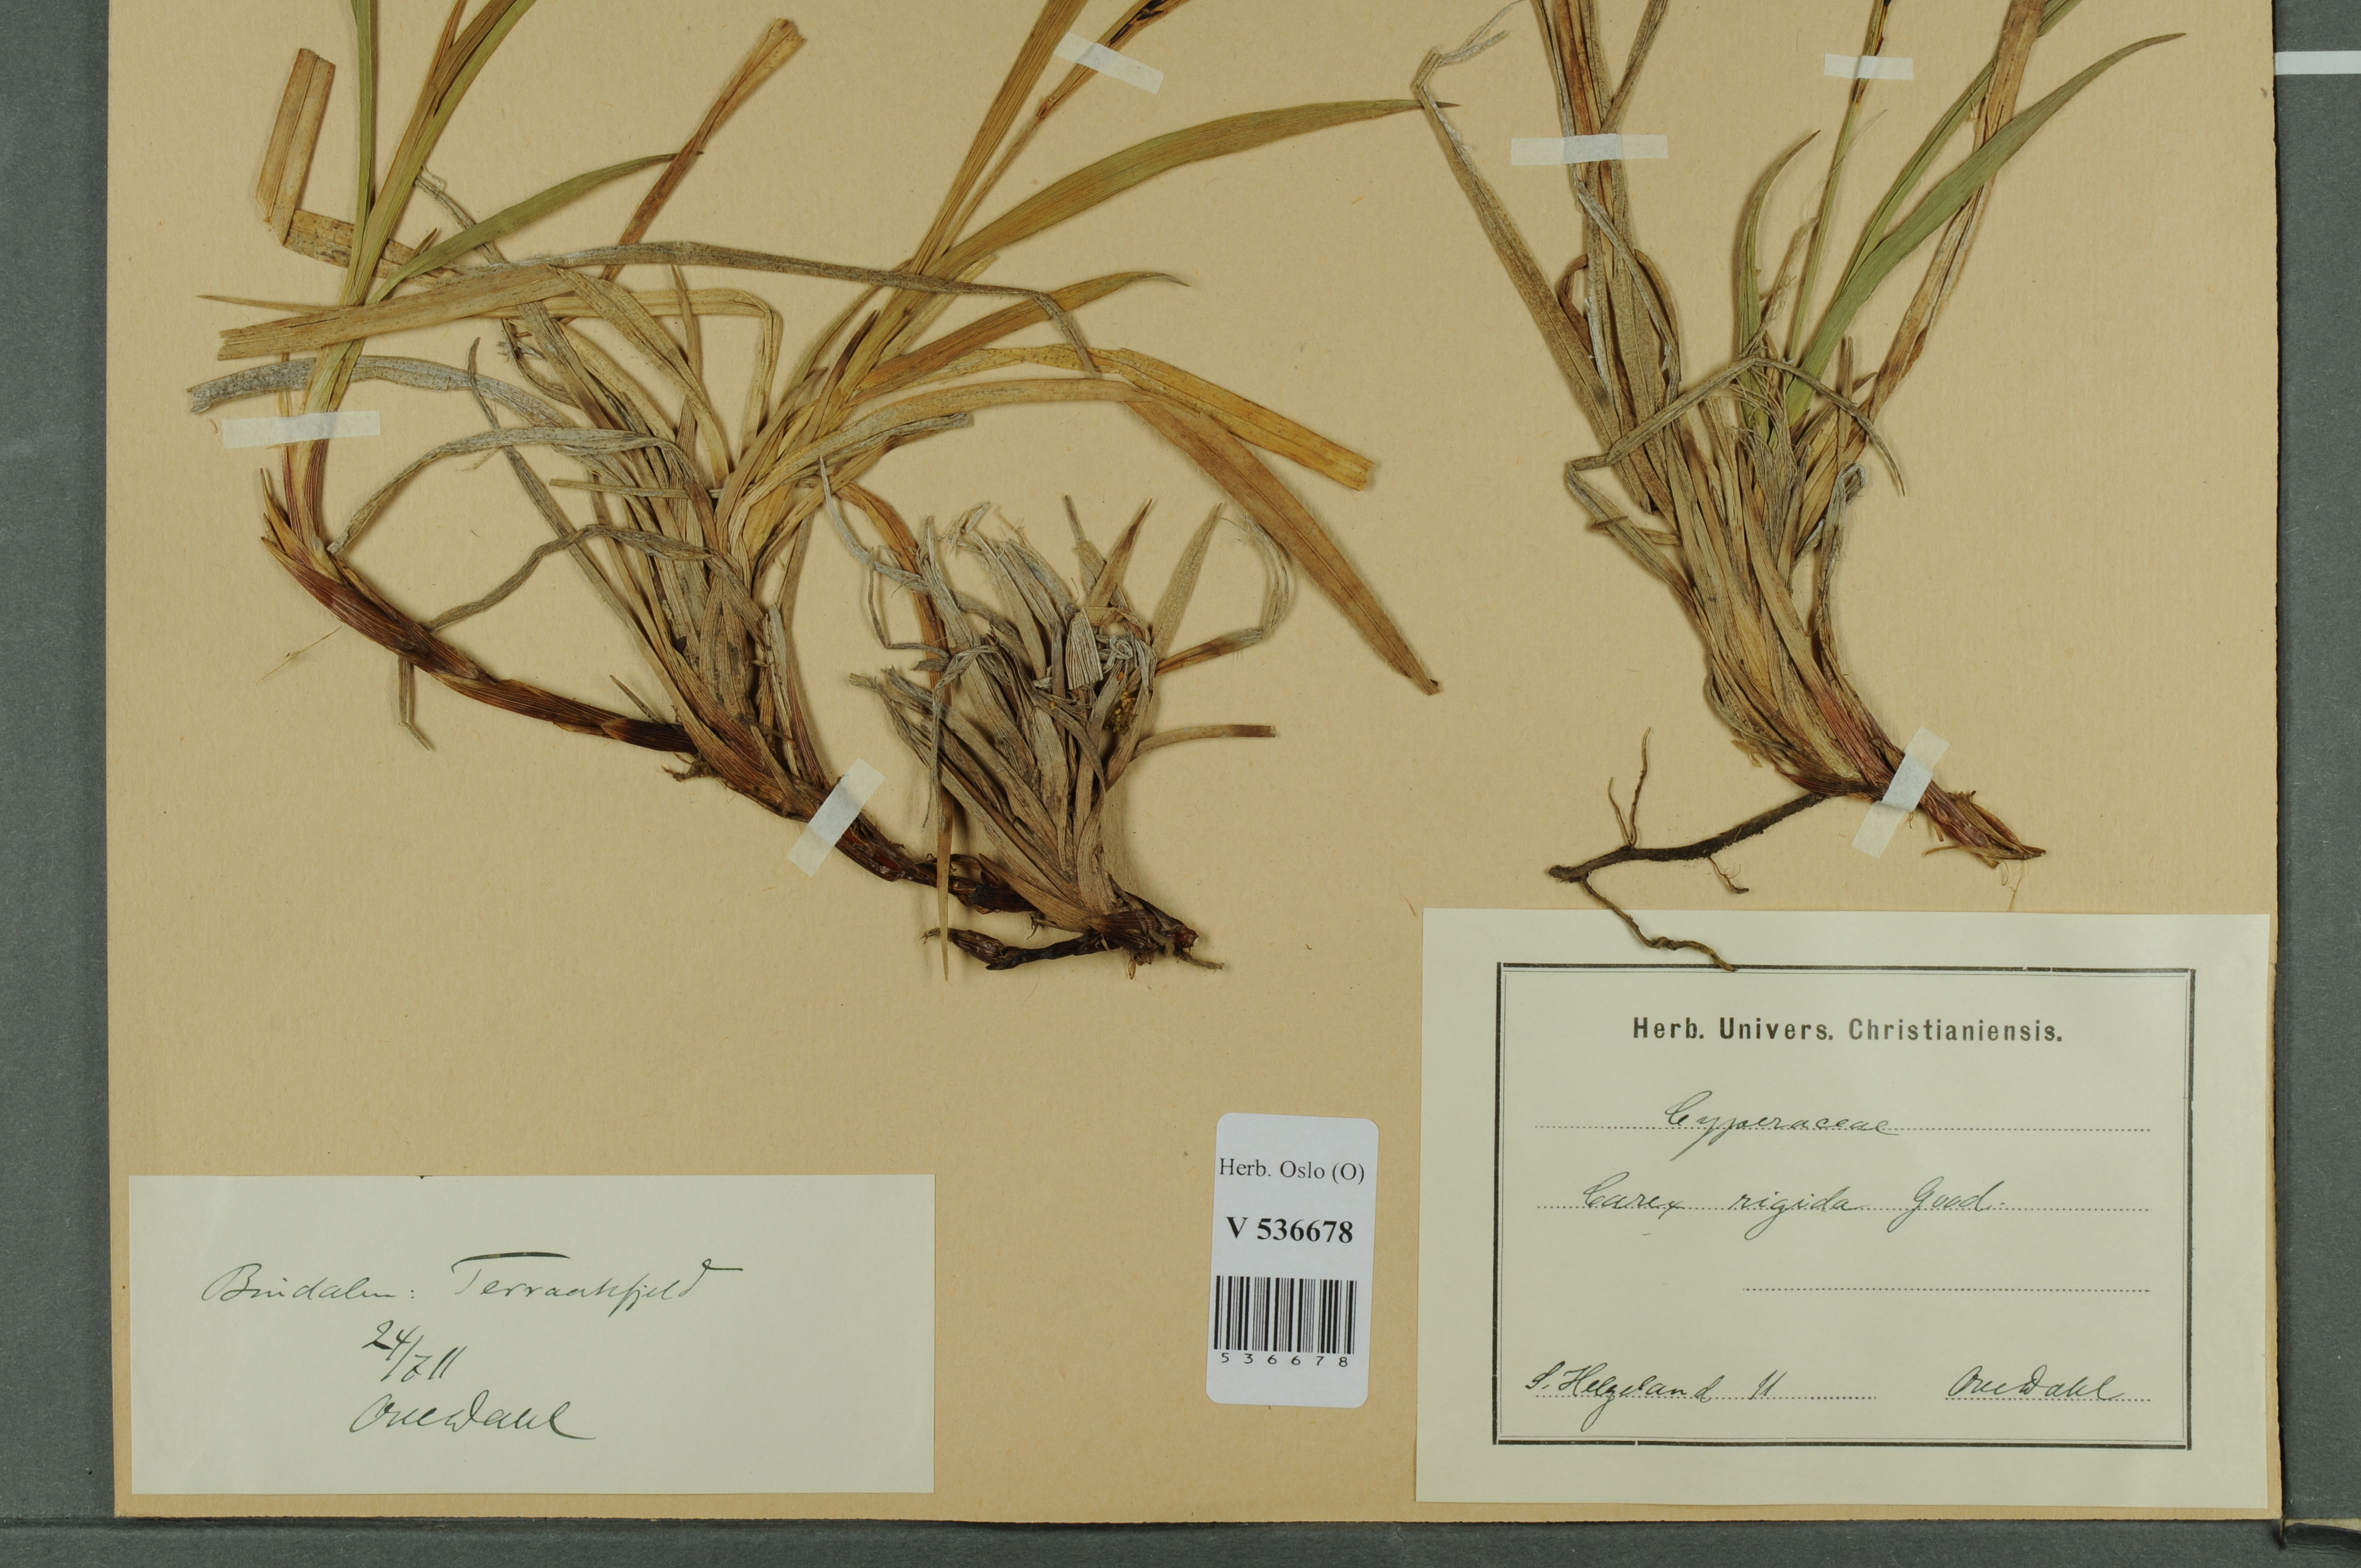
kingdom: Plantae
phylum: Tracheophyta
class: Liliopsida
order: Poales
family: Cyperaceae
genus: Carex
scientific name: Carex dacica
